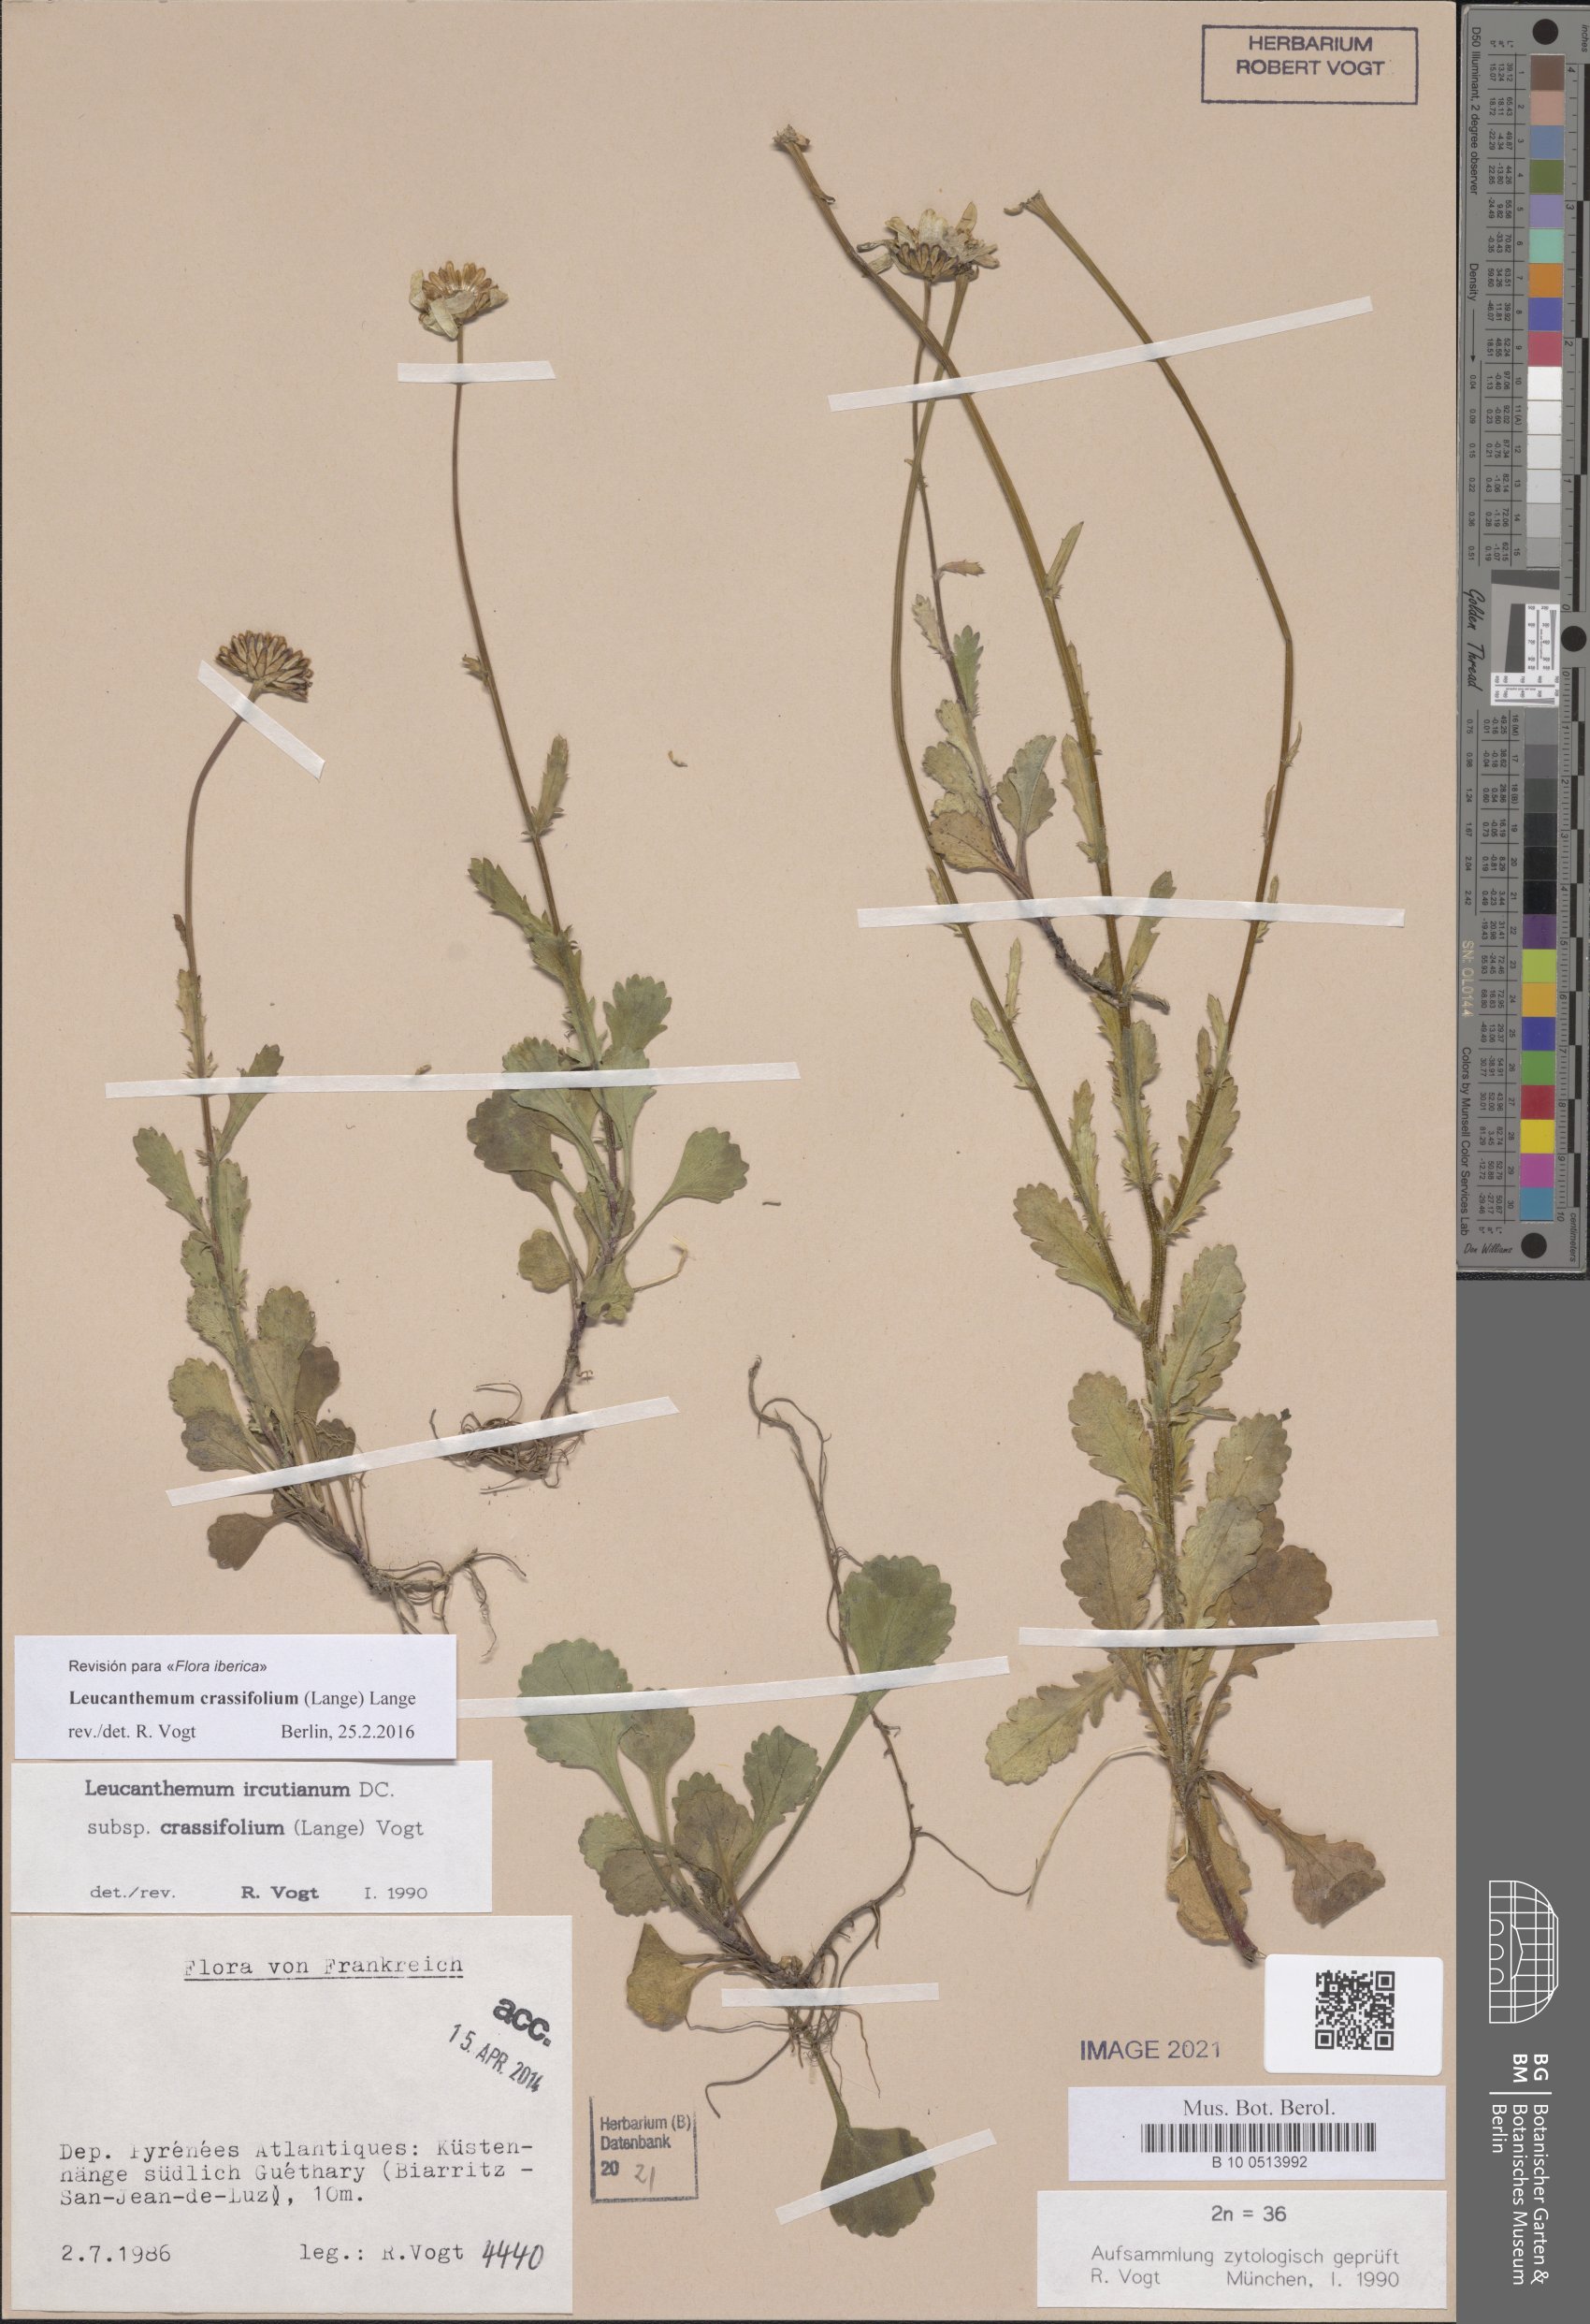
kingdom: Plantae
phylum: Tracheophyta
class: Magnoliopsida
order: Asterales
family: Asteraceae
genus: Leucanthemum
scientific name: Leucanthemum crassifolium
